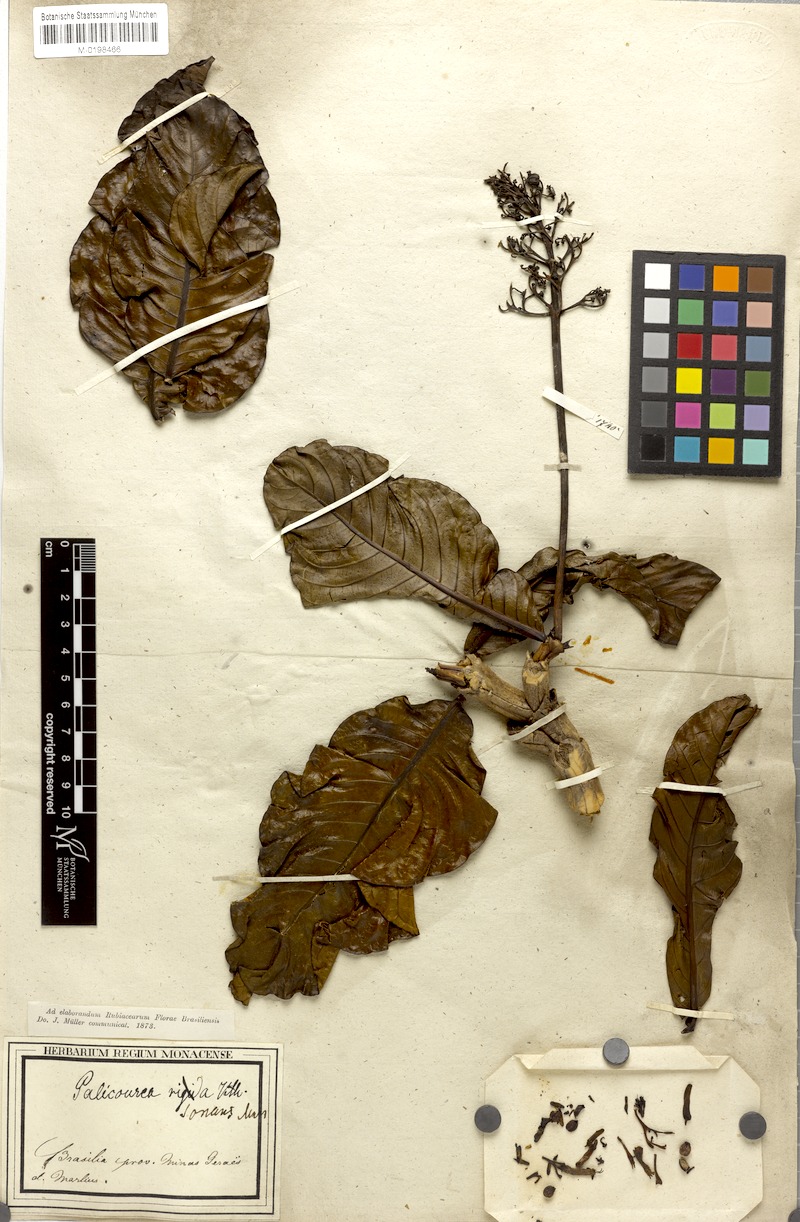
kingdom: Plantae
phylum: Tracheophyta
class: Magnoliopsida
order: Gentianales
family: Rubiaceae
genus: Palicourea
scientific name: Palicourea rigida
